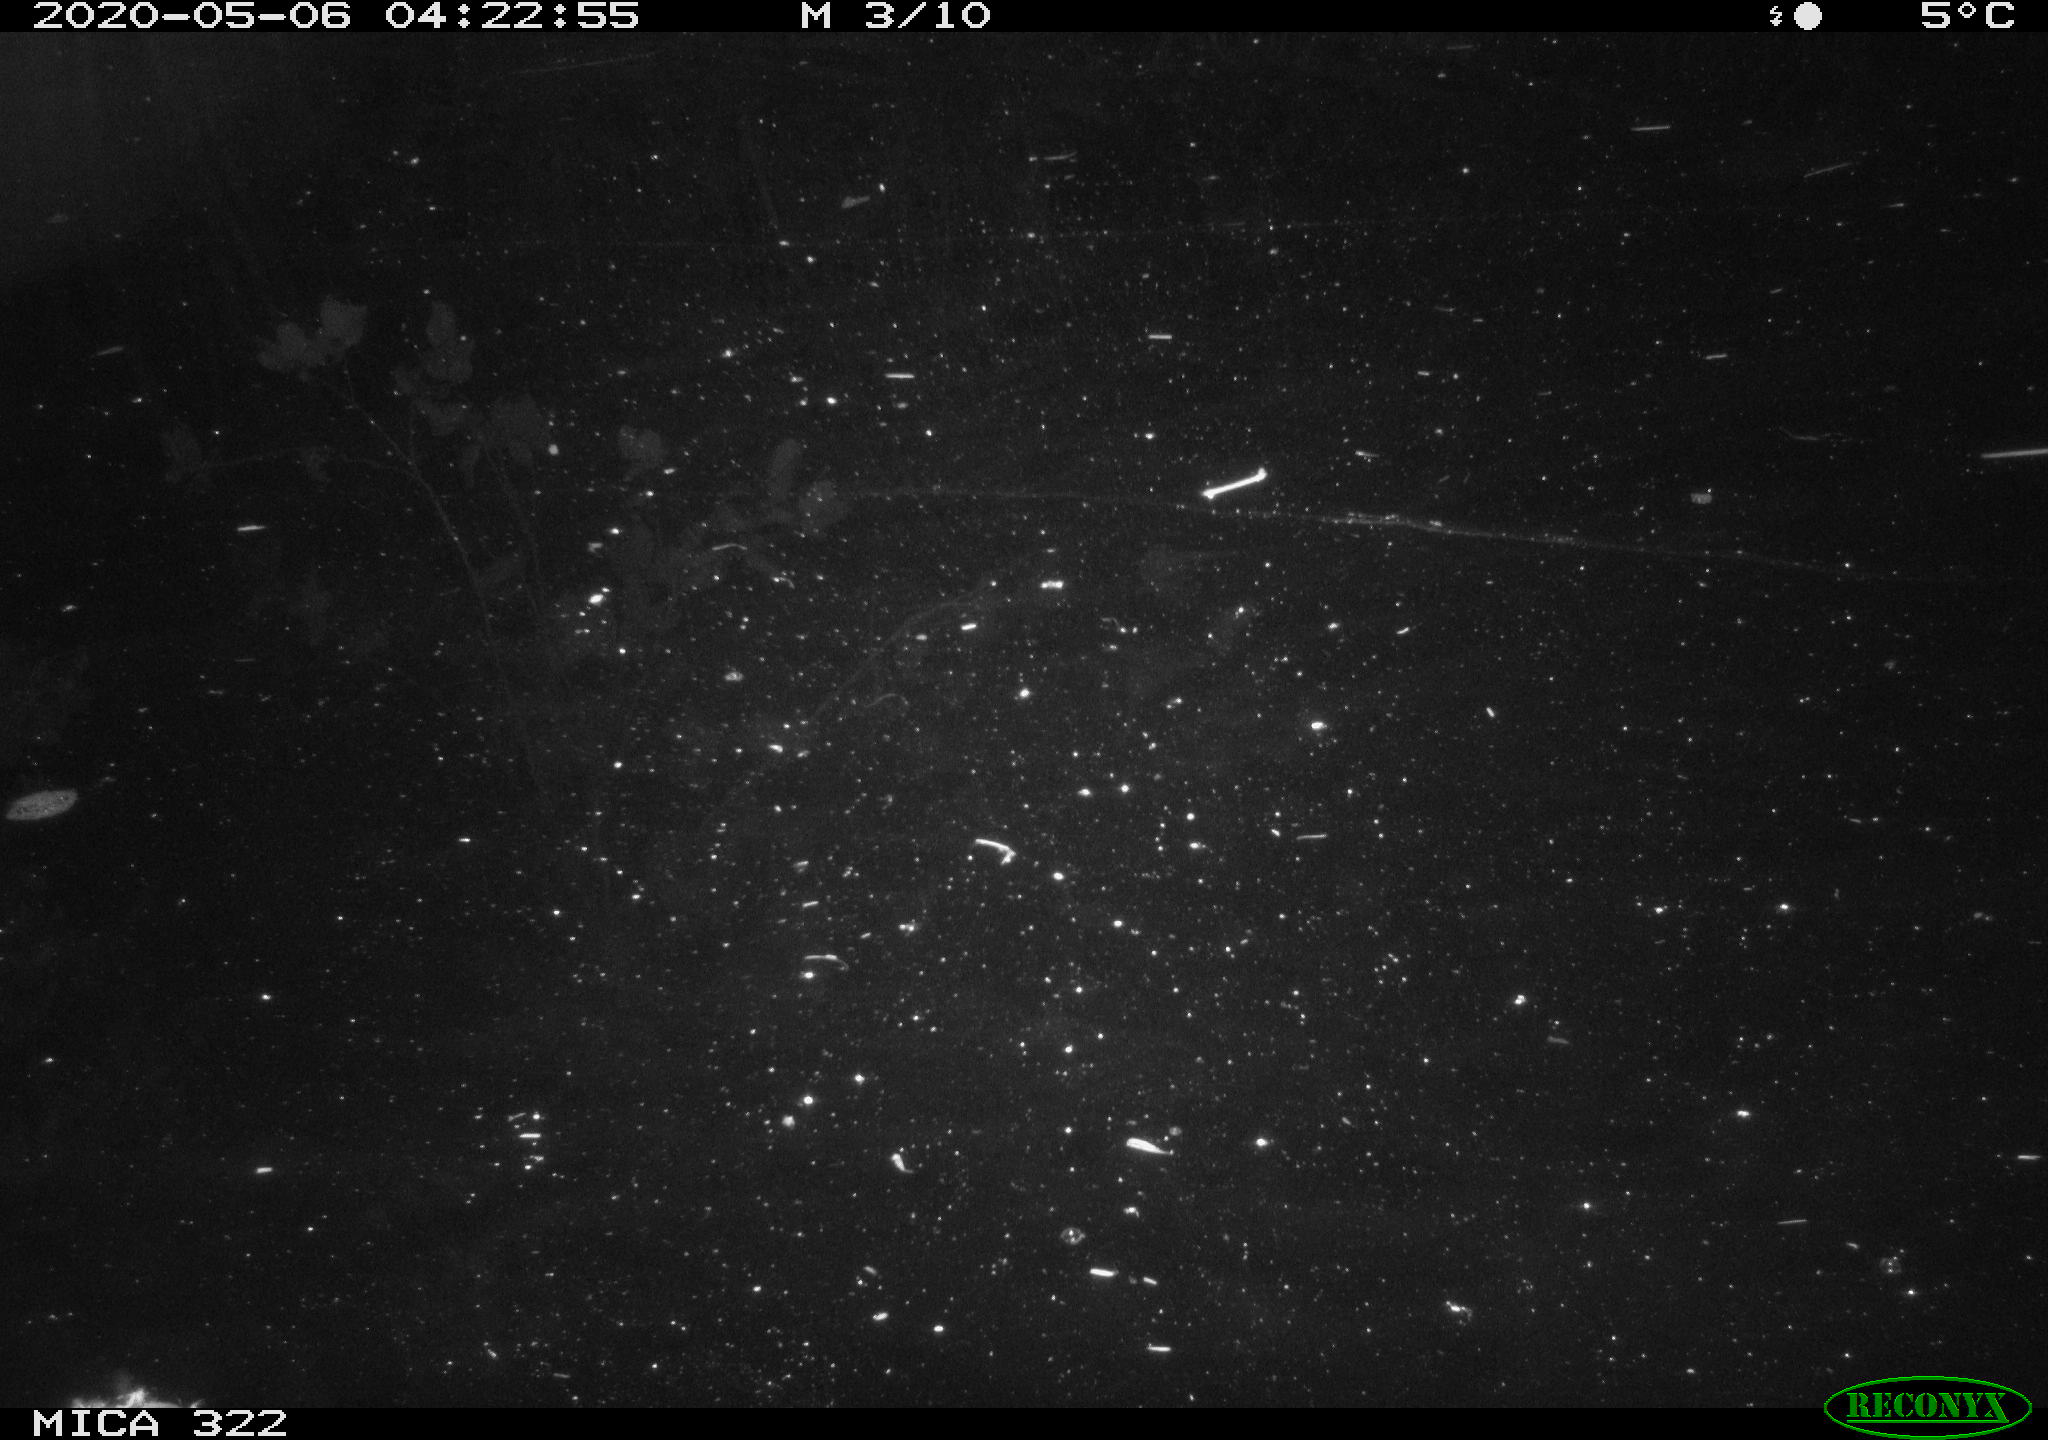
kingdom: Animalia
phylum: Chordata
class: Aves
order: Anseriformes
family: Anatidae
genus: Anas
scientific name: Anas platyrhynchos
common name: Mallard
